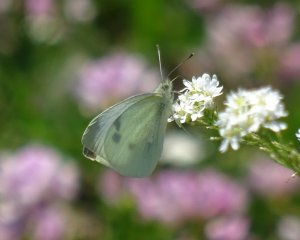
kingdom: Animalia
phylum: Arthropoda
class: Insecta
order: Lepidoptera
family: Pieridae
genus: Pieris
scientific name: Pieris rapae
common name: Cabbage White
